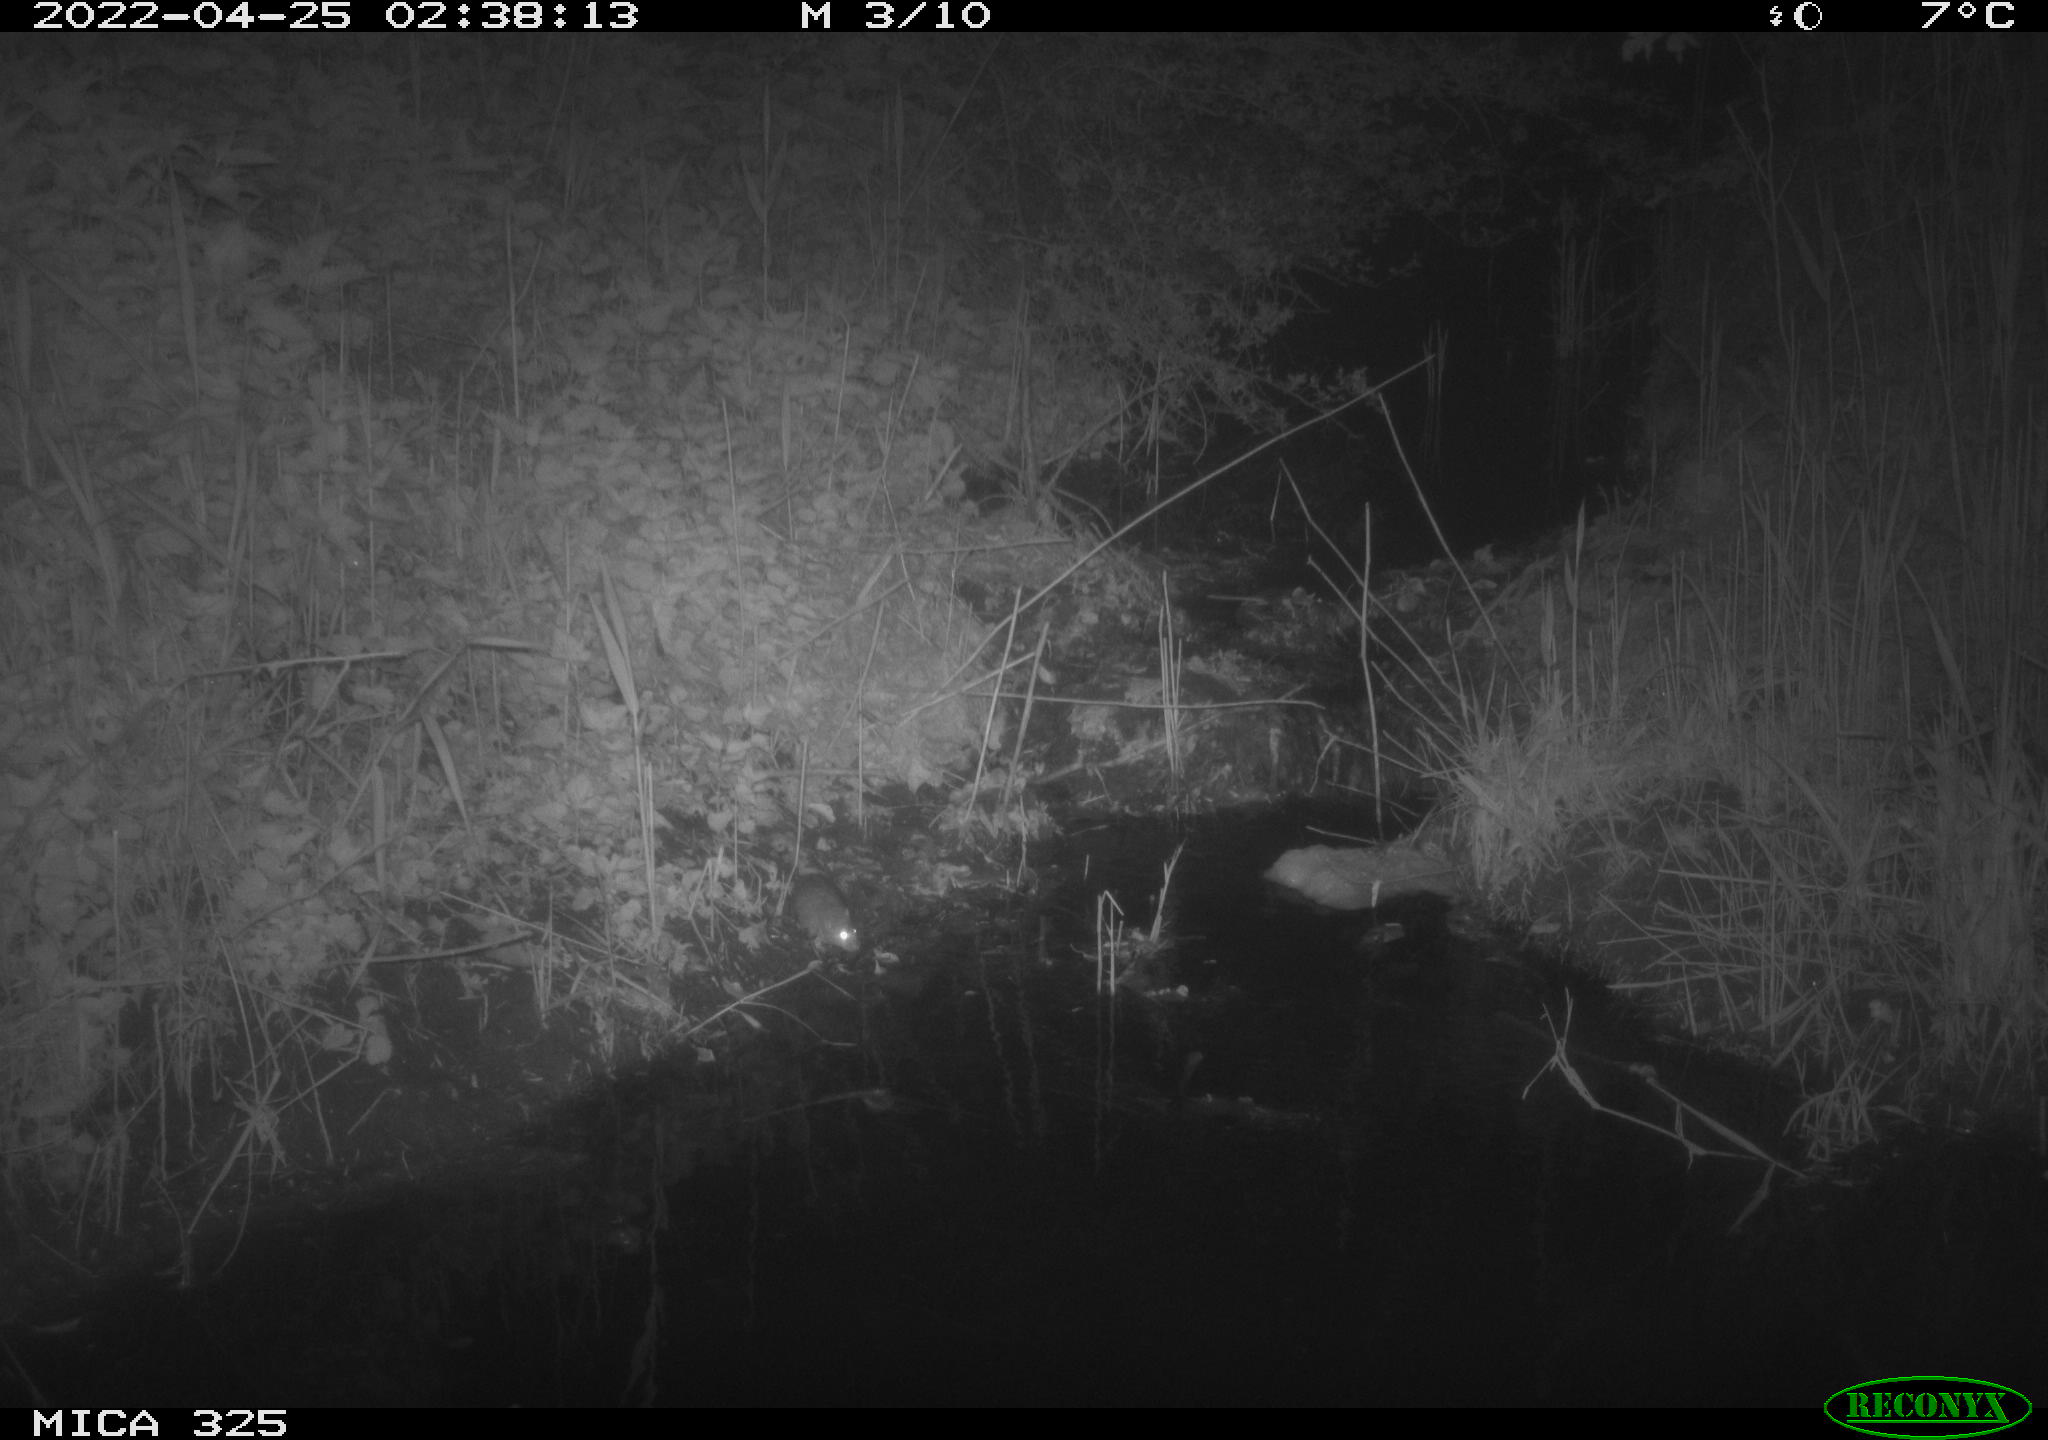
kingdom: Animalia
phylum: Chordata
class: Mammalia
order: Rodentia
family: Muridae
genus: Rattus
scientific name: Rattus norvegicus
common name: Brown rat
